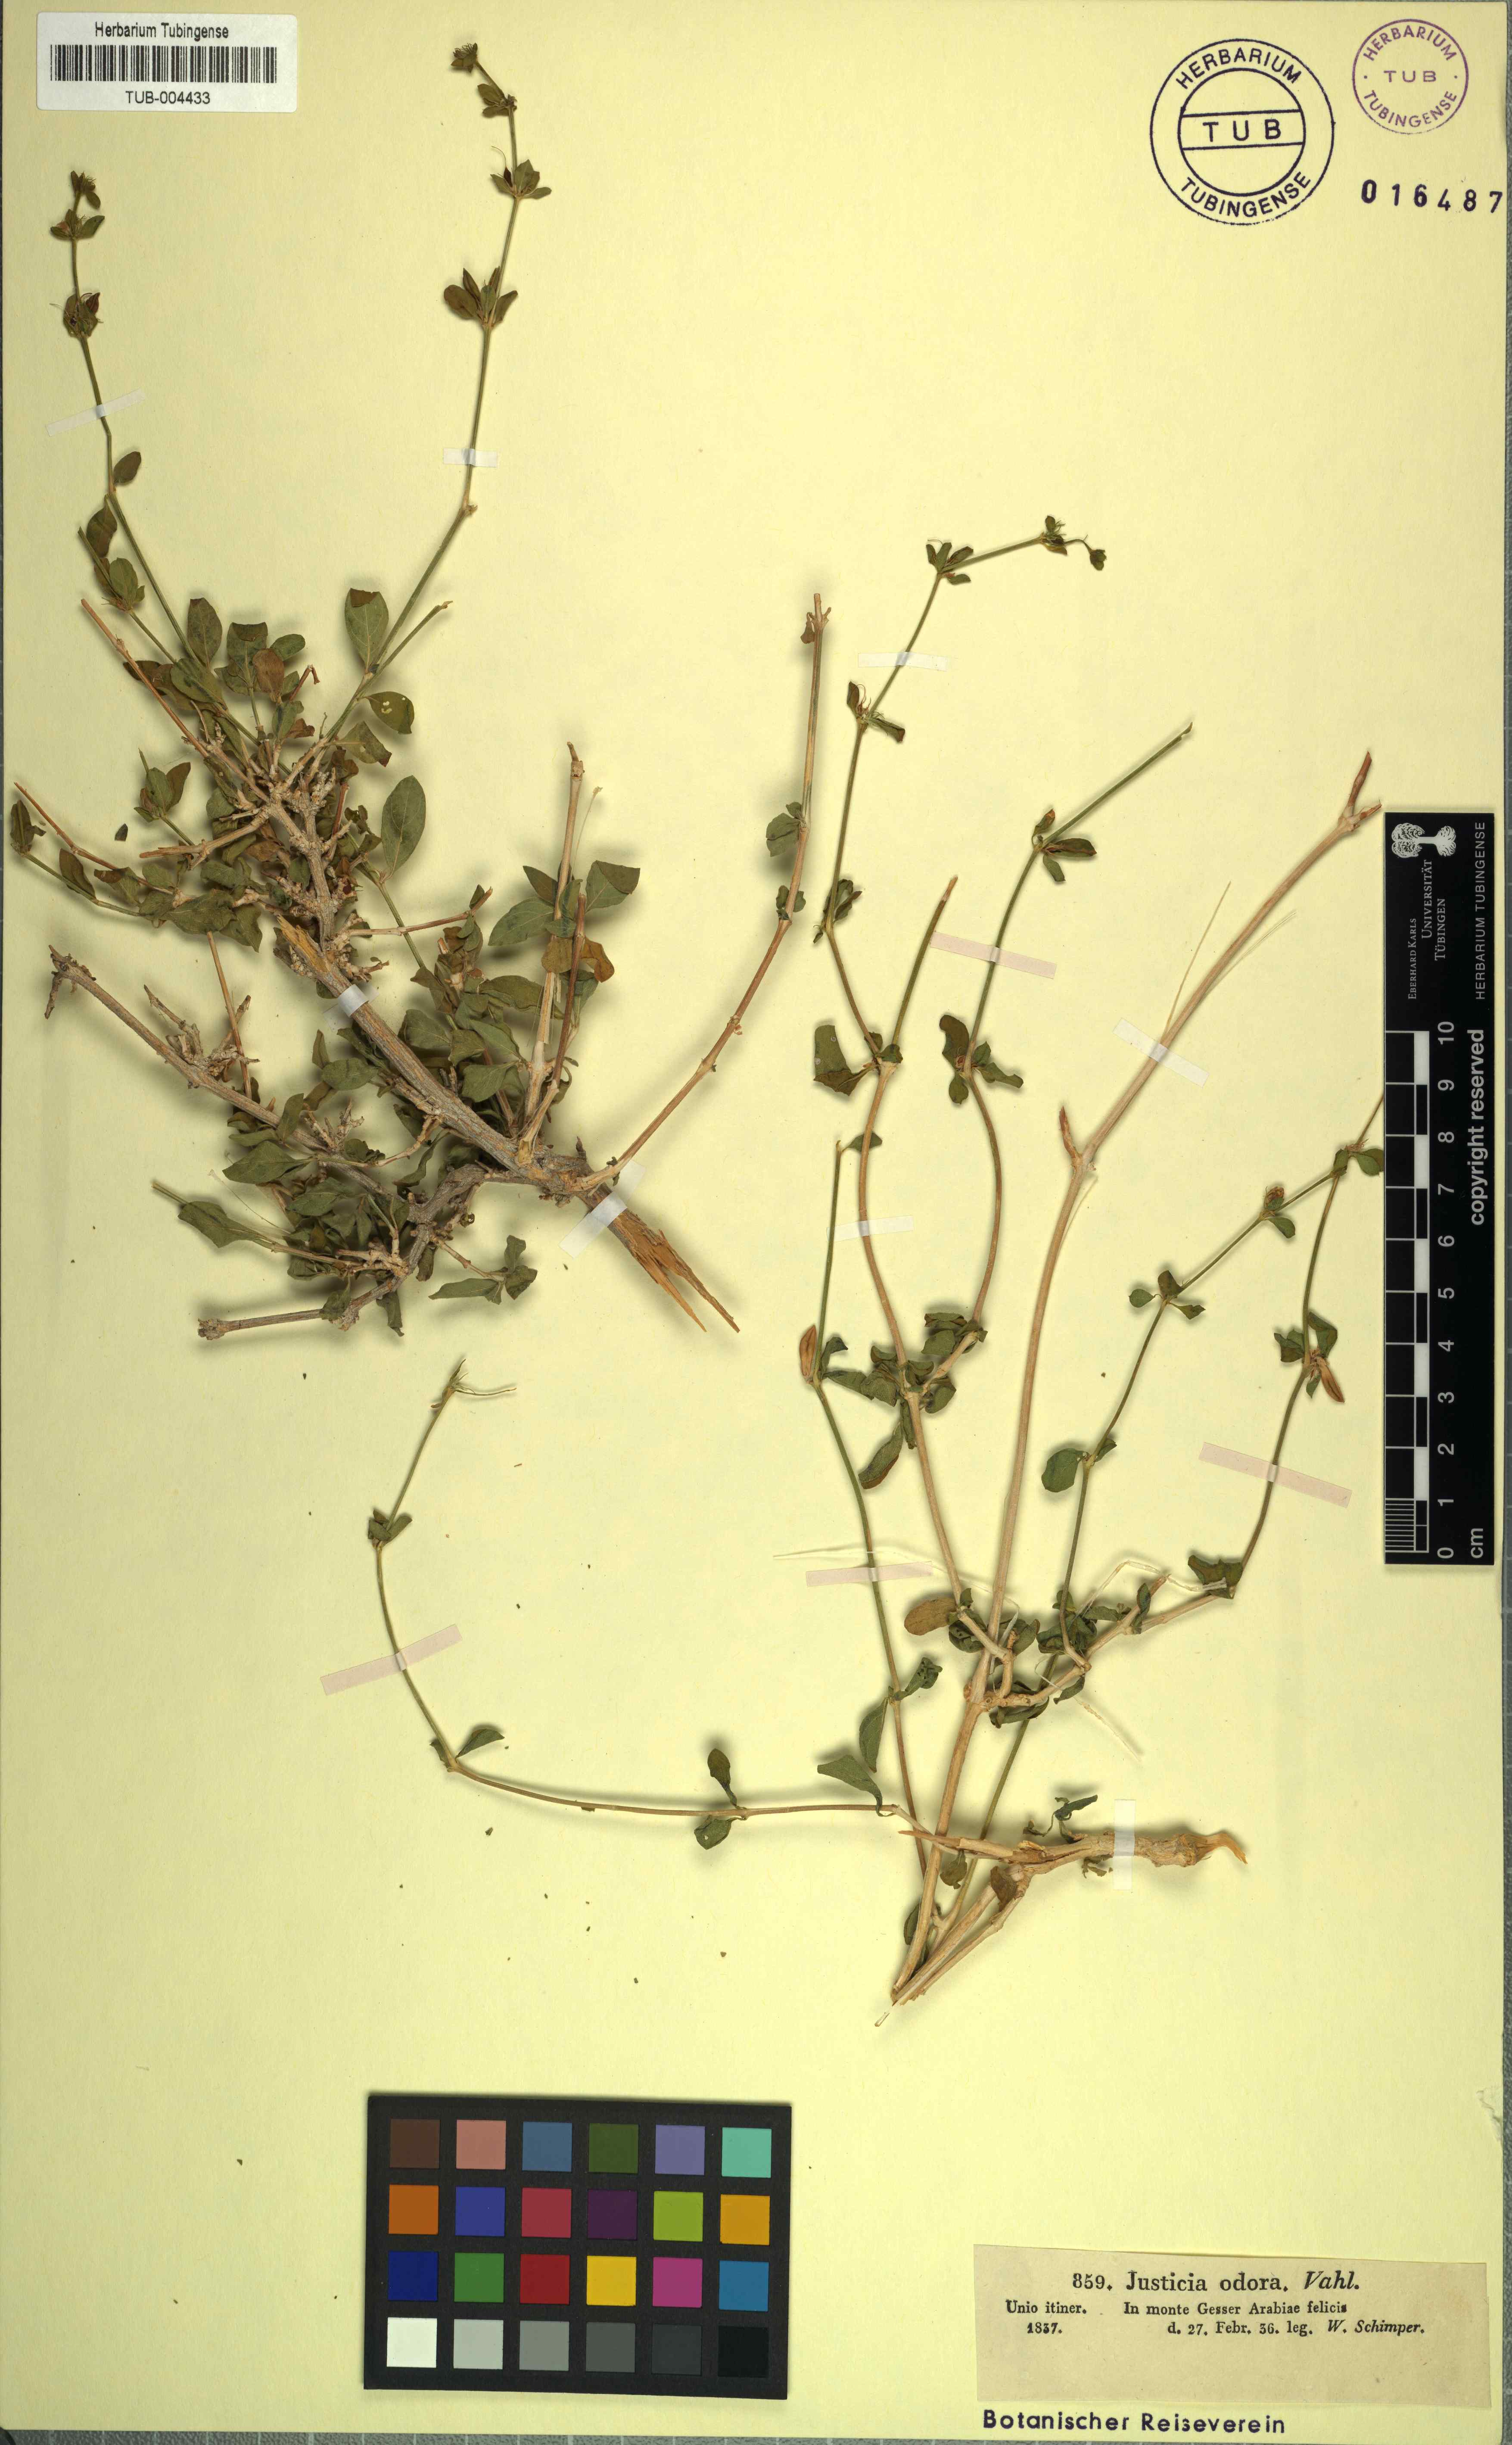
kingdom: Plantae
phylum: Tracheophyta
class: Magnoliopsida
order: Lamiales
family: Acanthaceae
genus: Justicia
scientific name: Justicia odora
